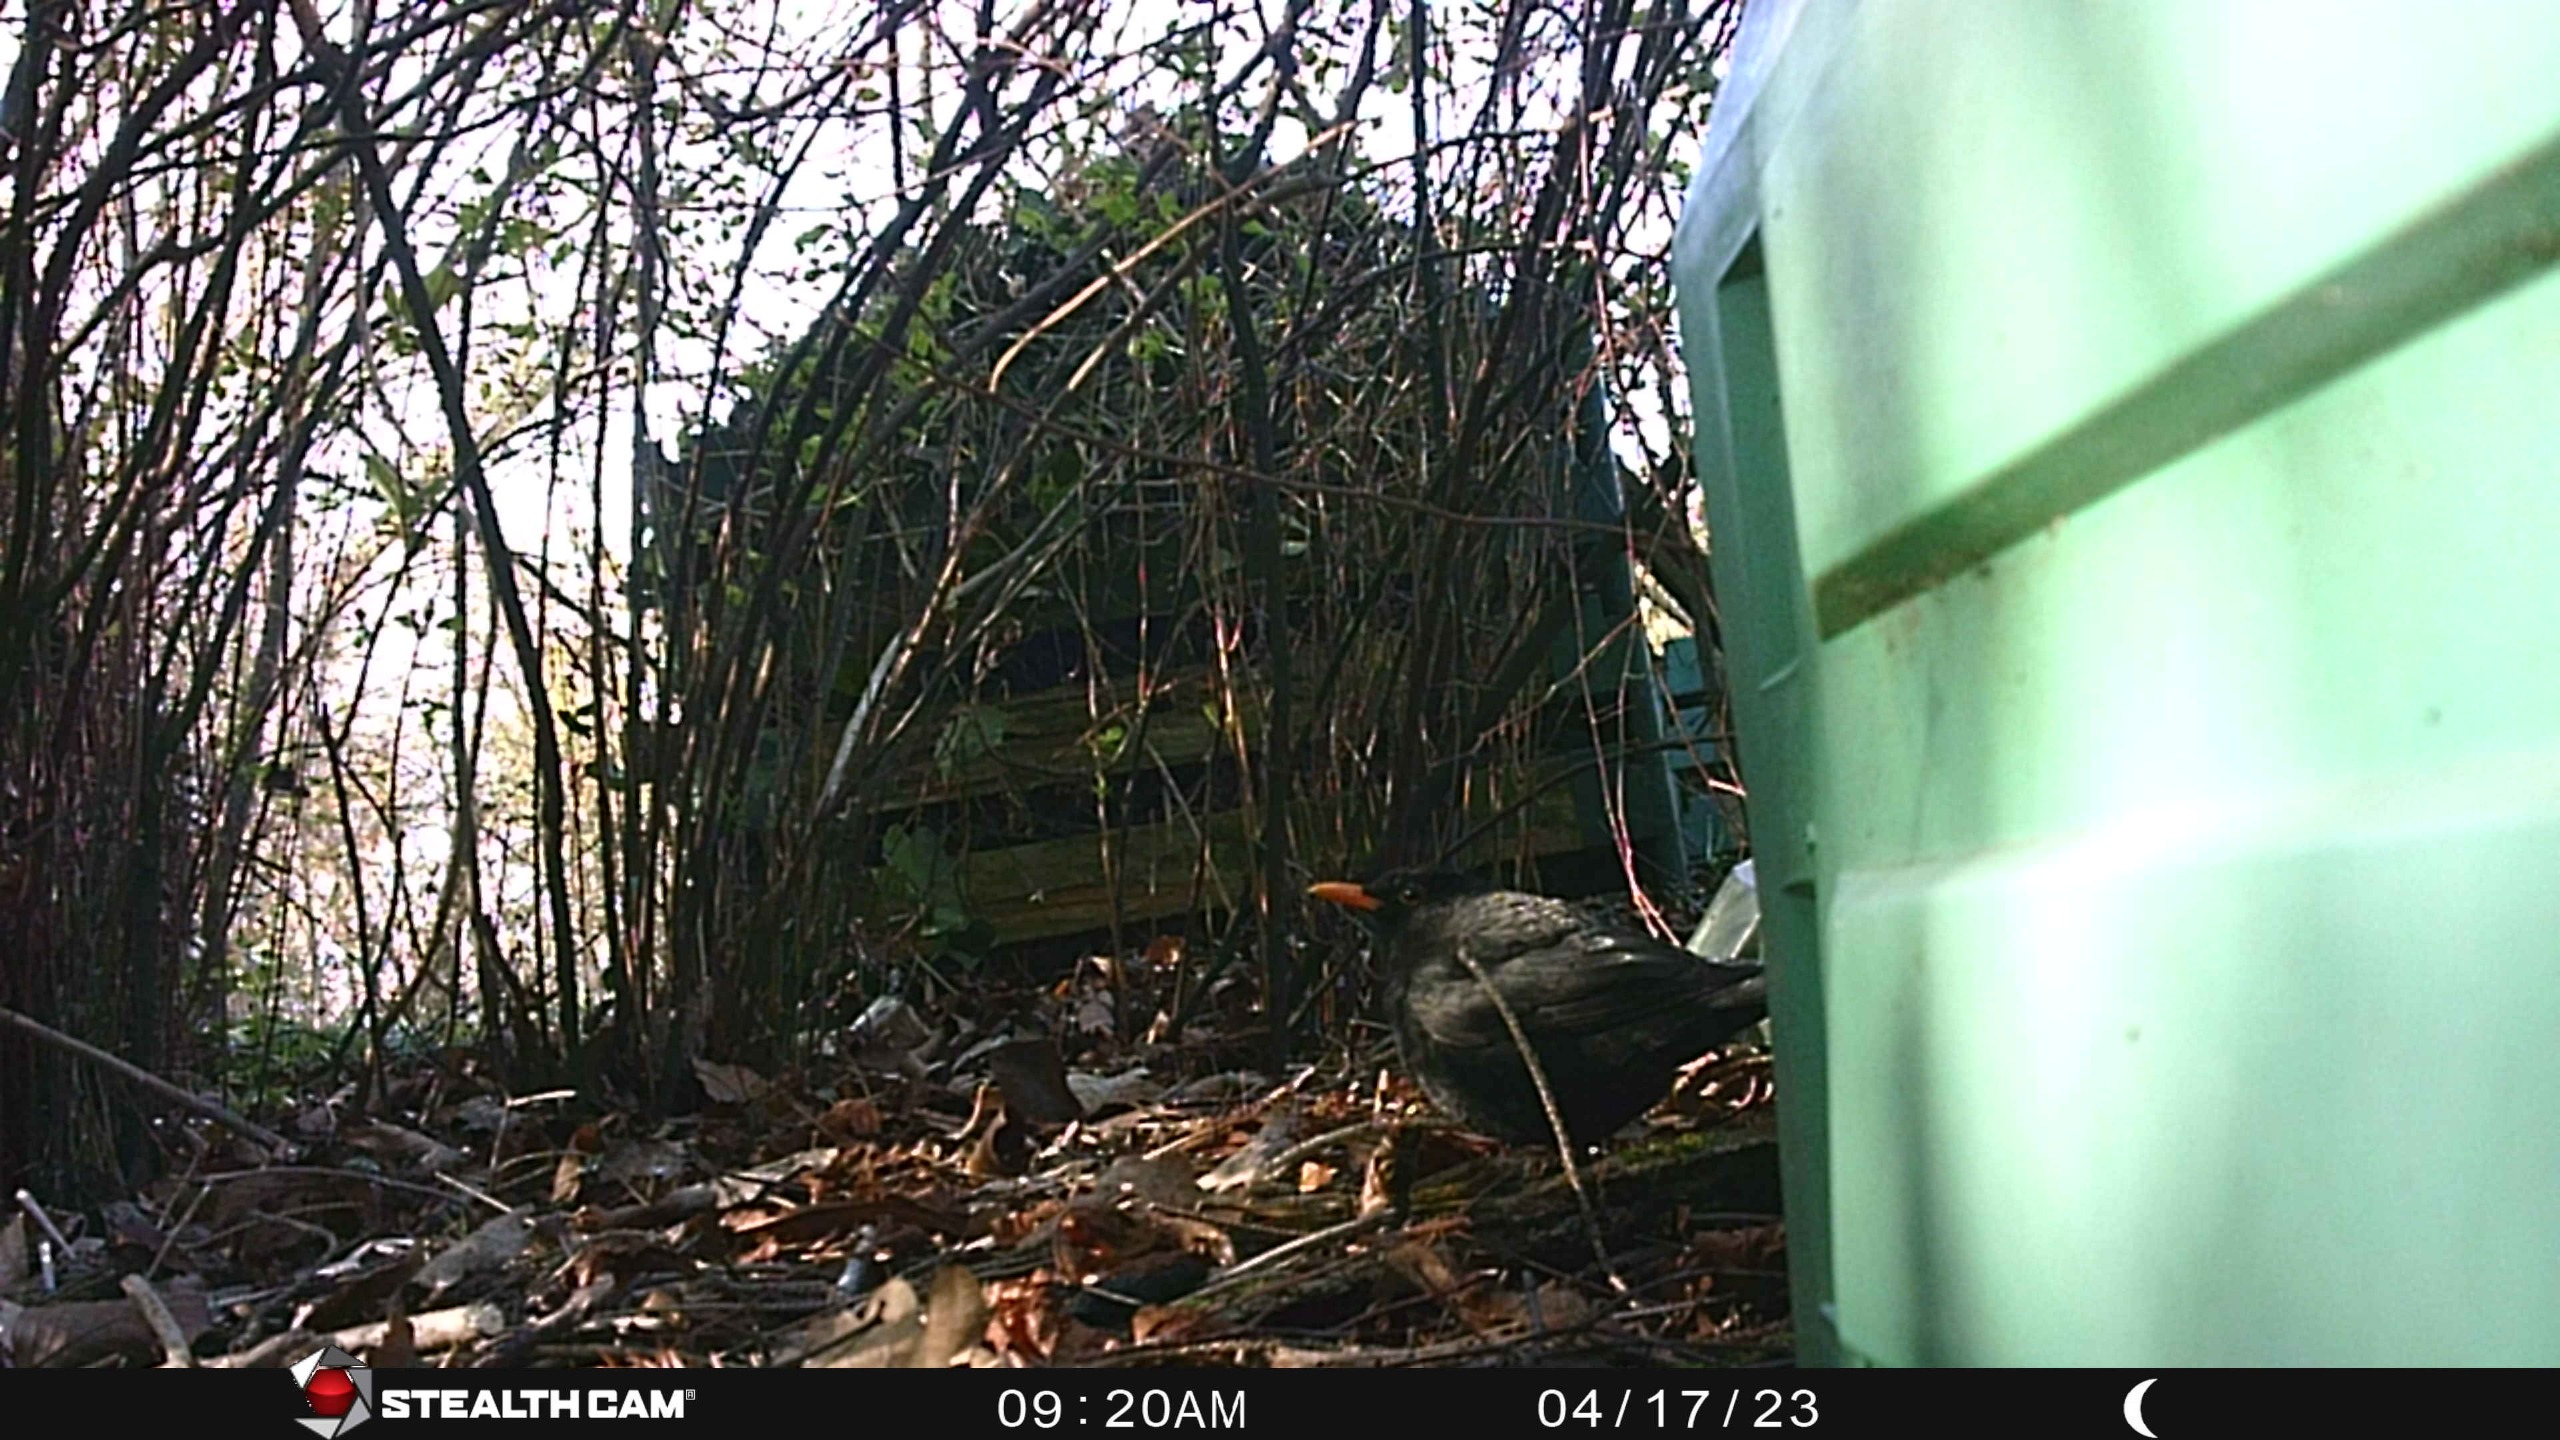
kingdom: Animalia
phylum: Chordata
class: Aves
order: Passeriformes
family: Turdidae
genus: Turdus
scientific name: Turdus merula
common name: Solsort
